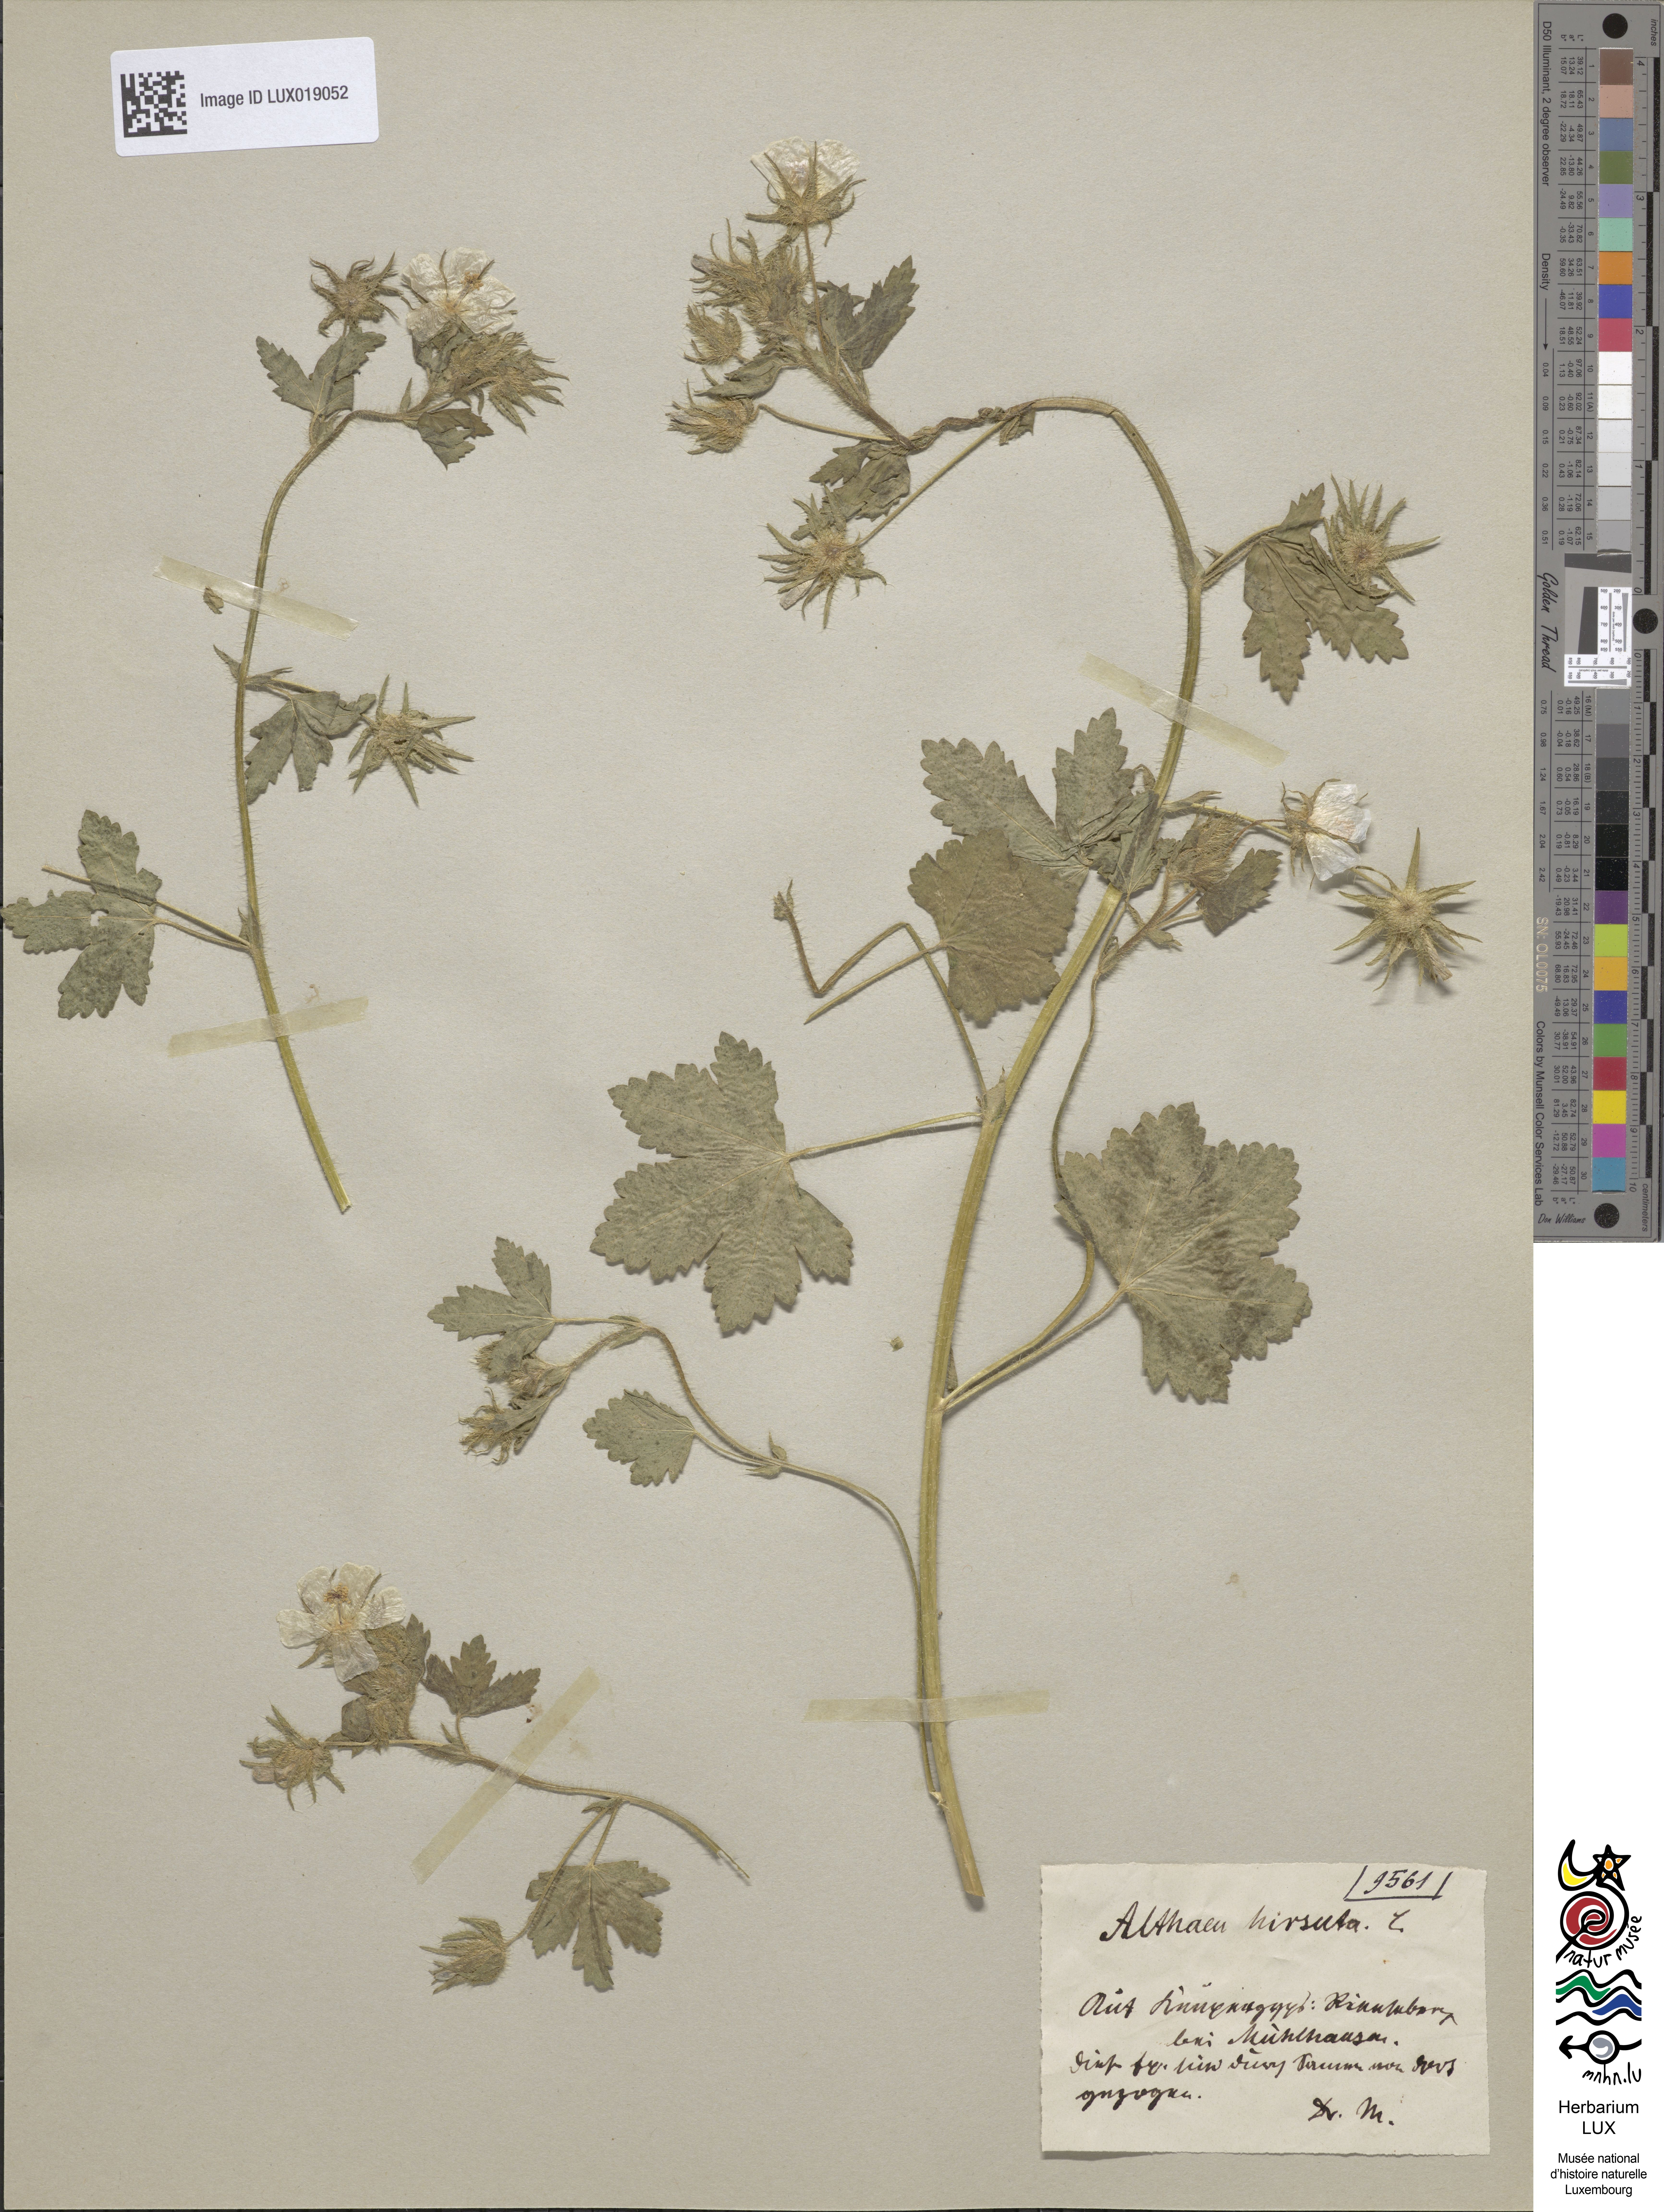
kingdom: Plantae
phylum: Tracheophyta
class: Magnoliopsida
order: Malvales
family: Malvaceae
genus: Althaea
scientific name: Althaea hirsuta
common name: Rough marsh-mallow
